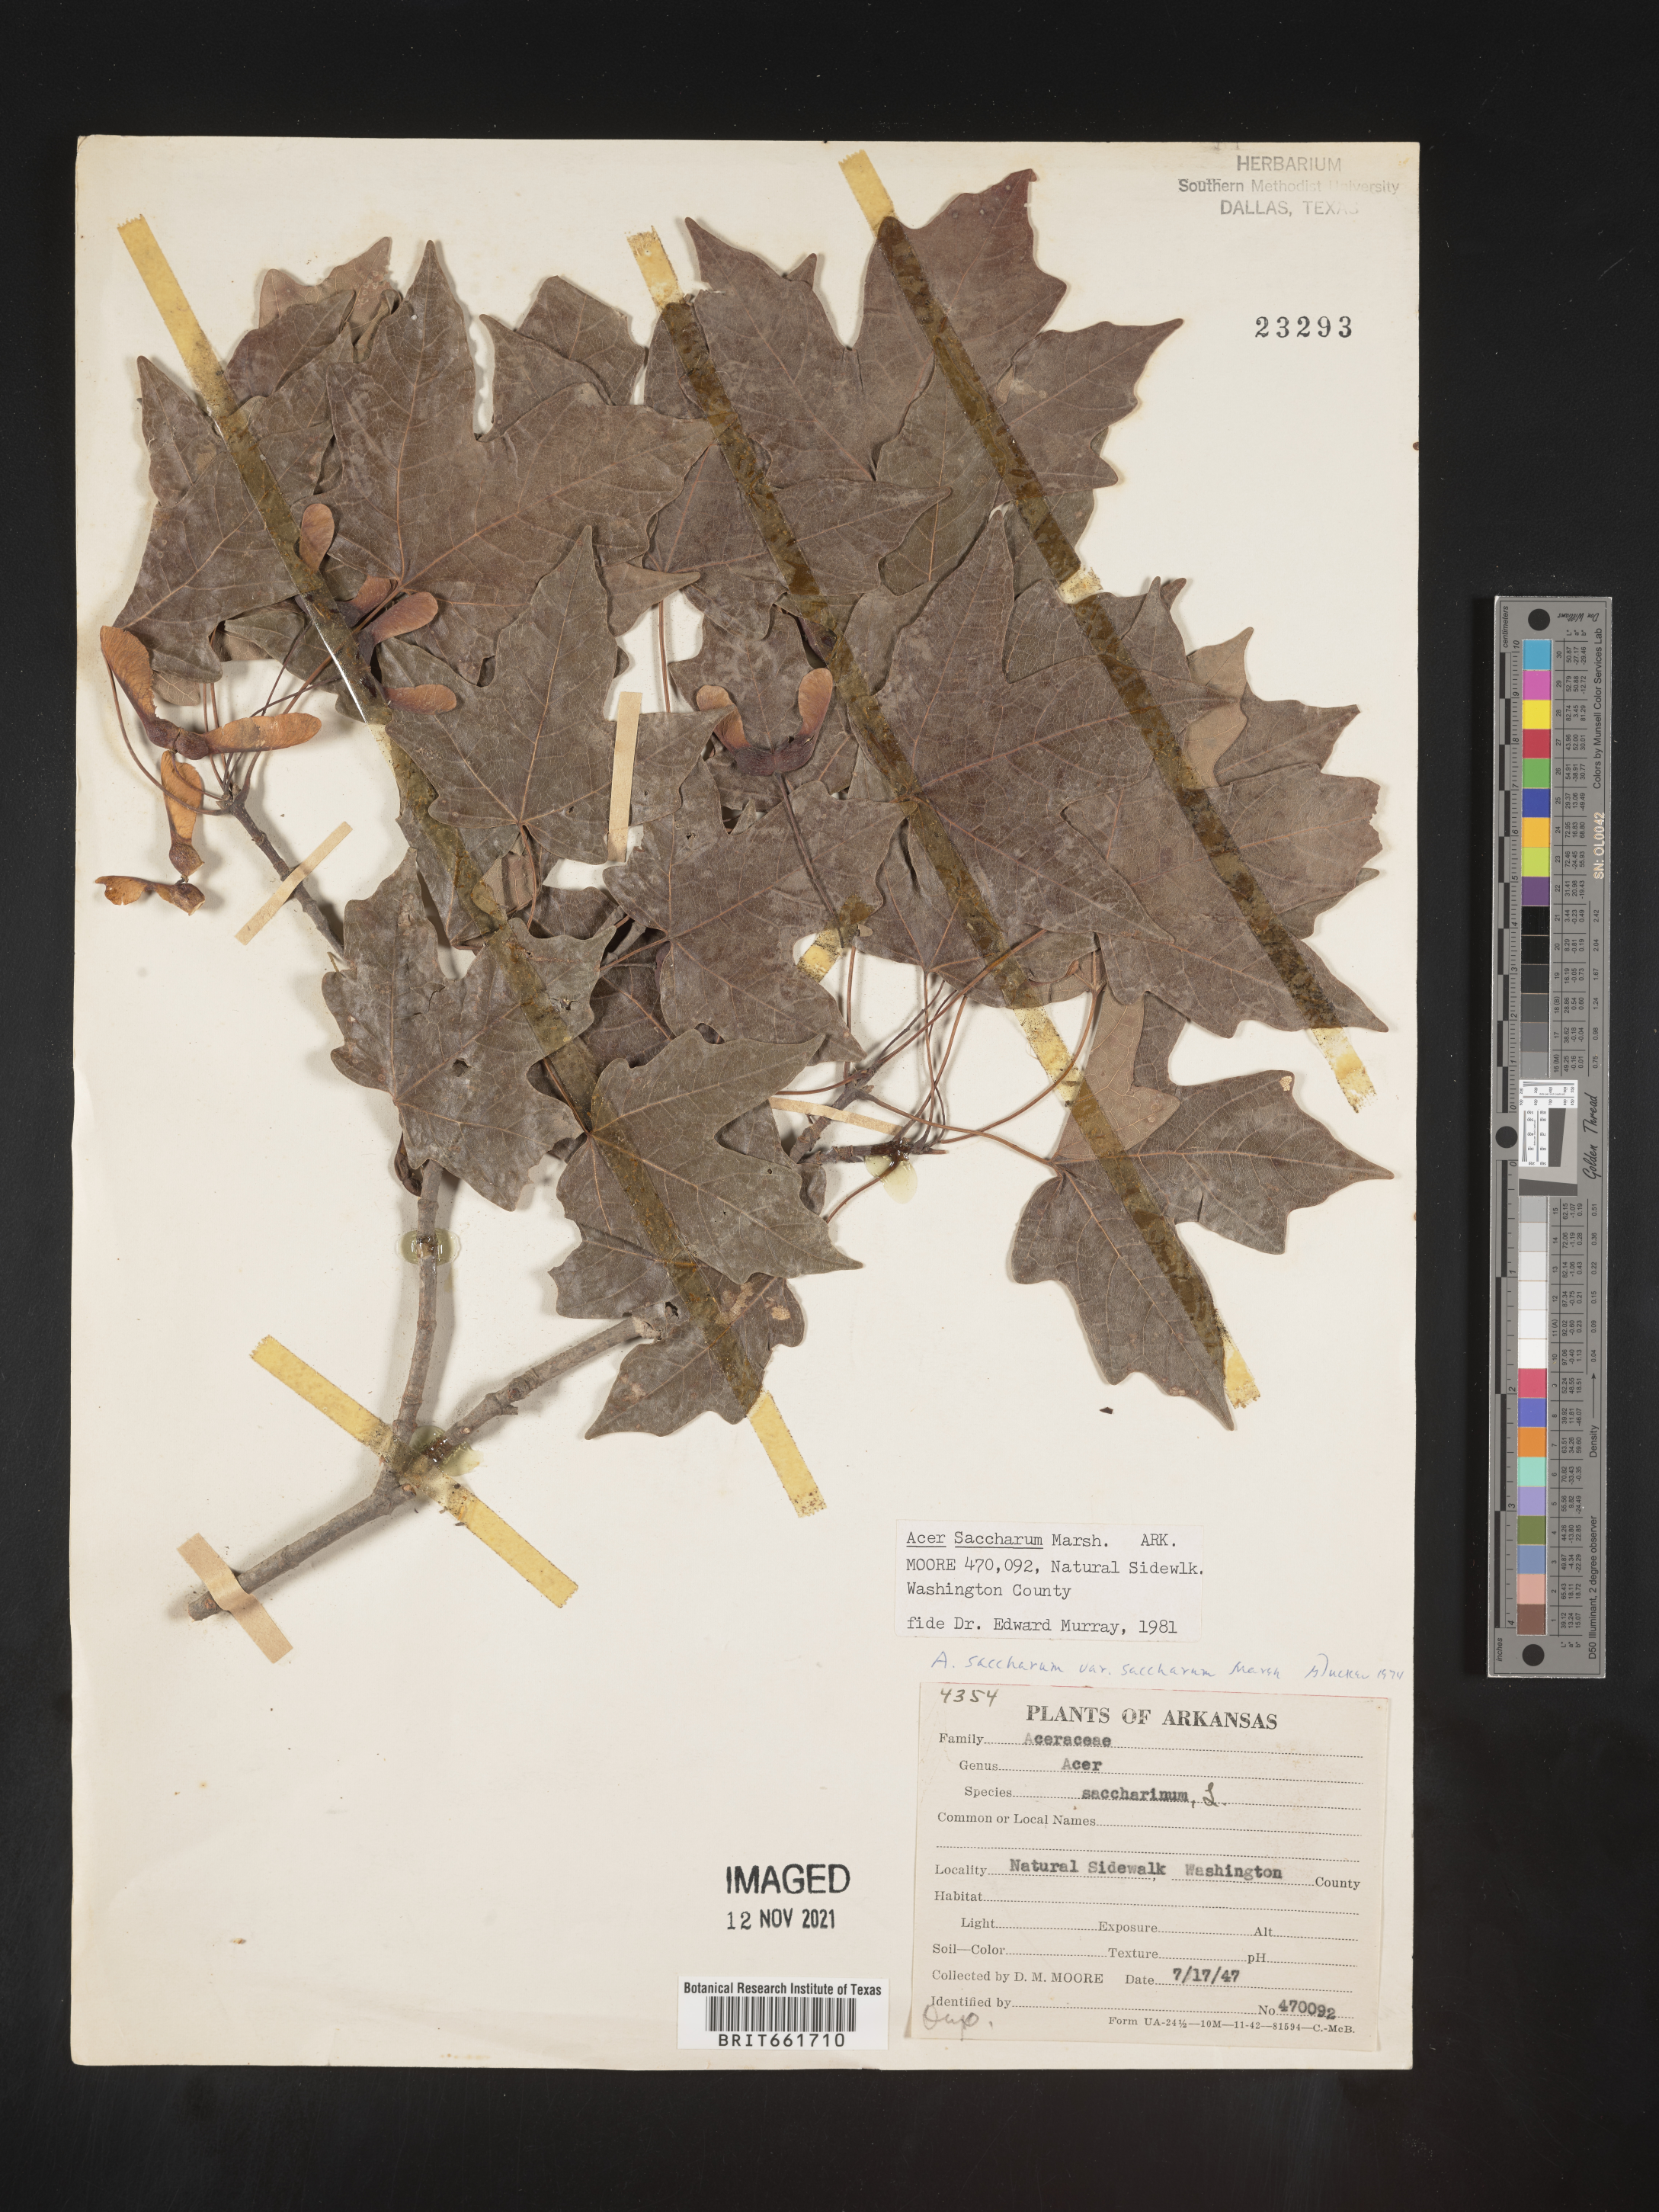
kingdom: Plantae
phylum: Tracheophyta
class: Magnoliopsida
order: Sapindales
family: Sapindaceae
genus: Acer
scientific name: Acer saccharum
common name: Sugar maple
